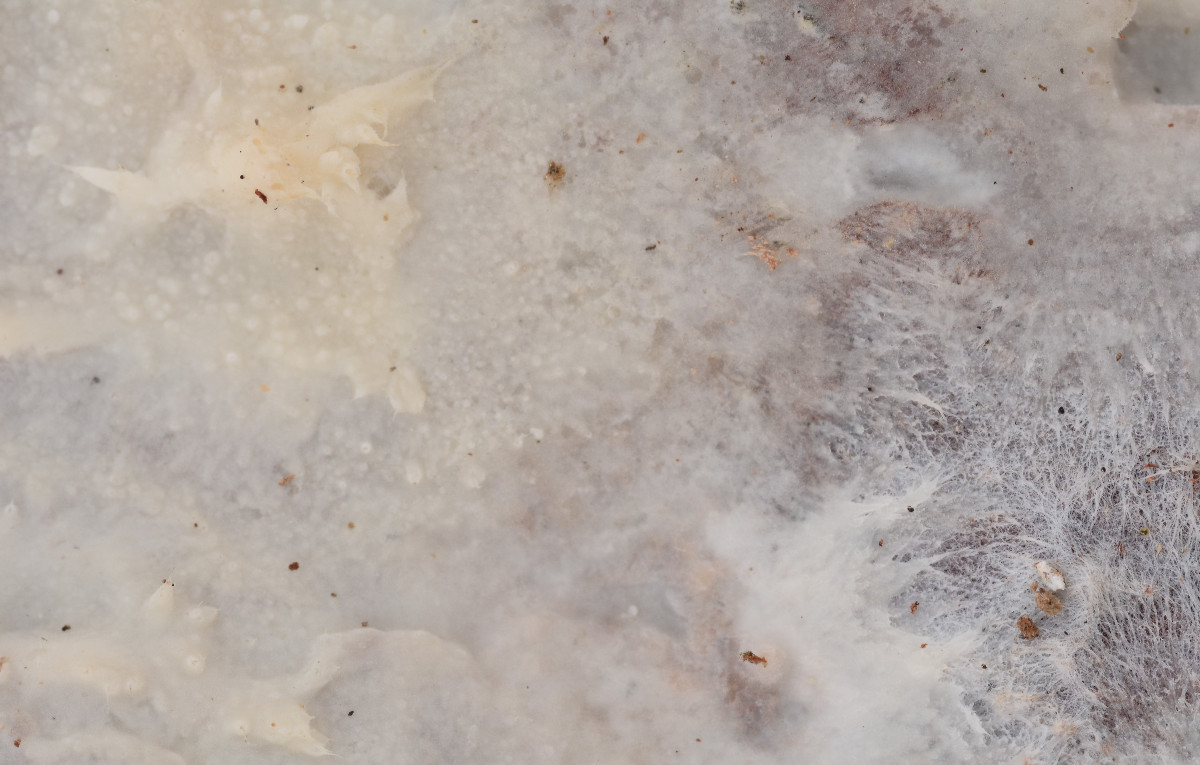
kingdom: Fungi
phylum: Basidiomycota
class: Agaricomycetes
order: Polyporales
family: Phanerochaetaceae
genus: Phlebiopsis
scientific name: Phlebiopsis gigantea
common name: kæmpebarksvamp
